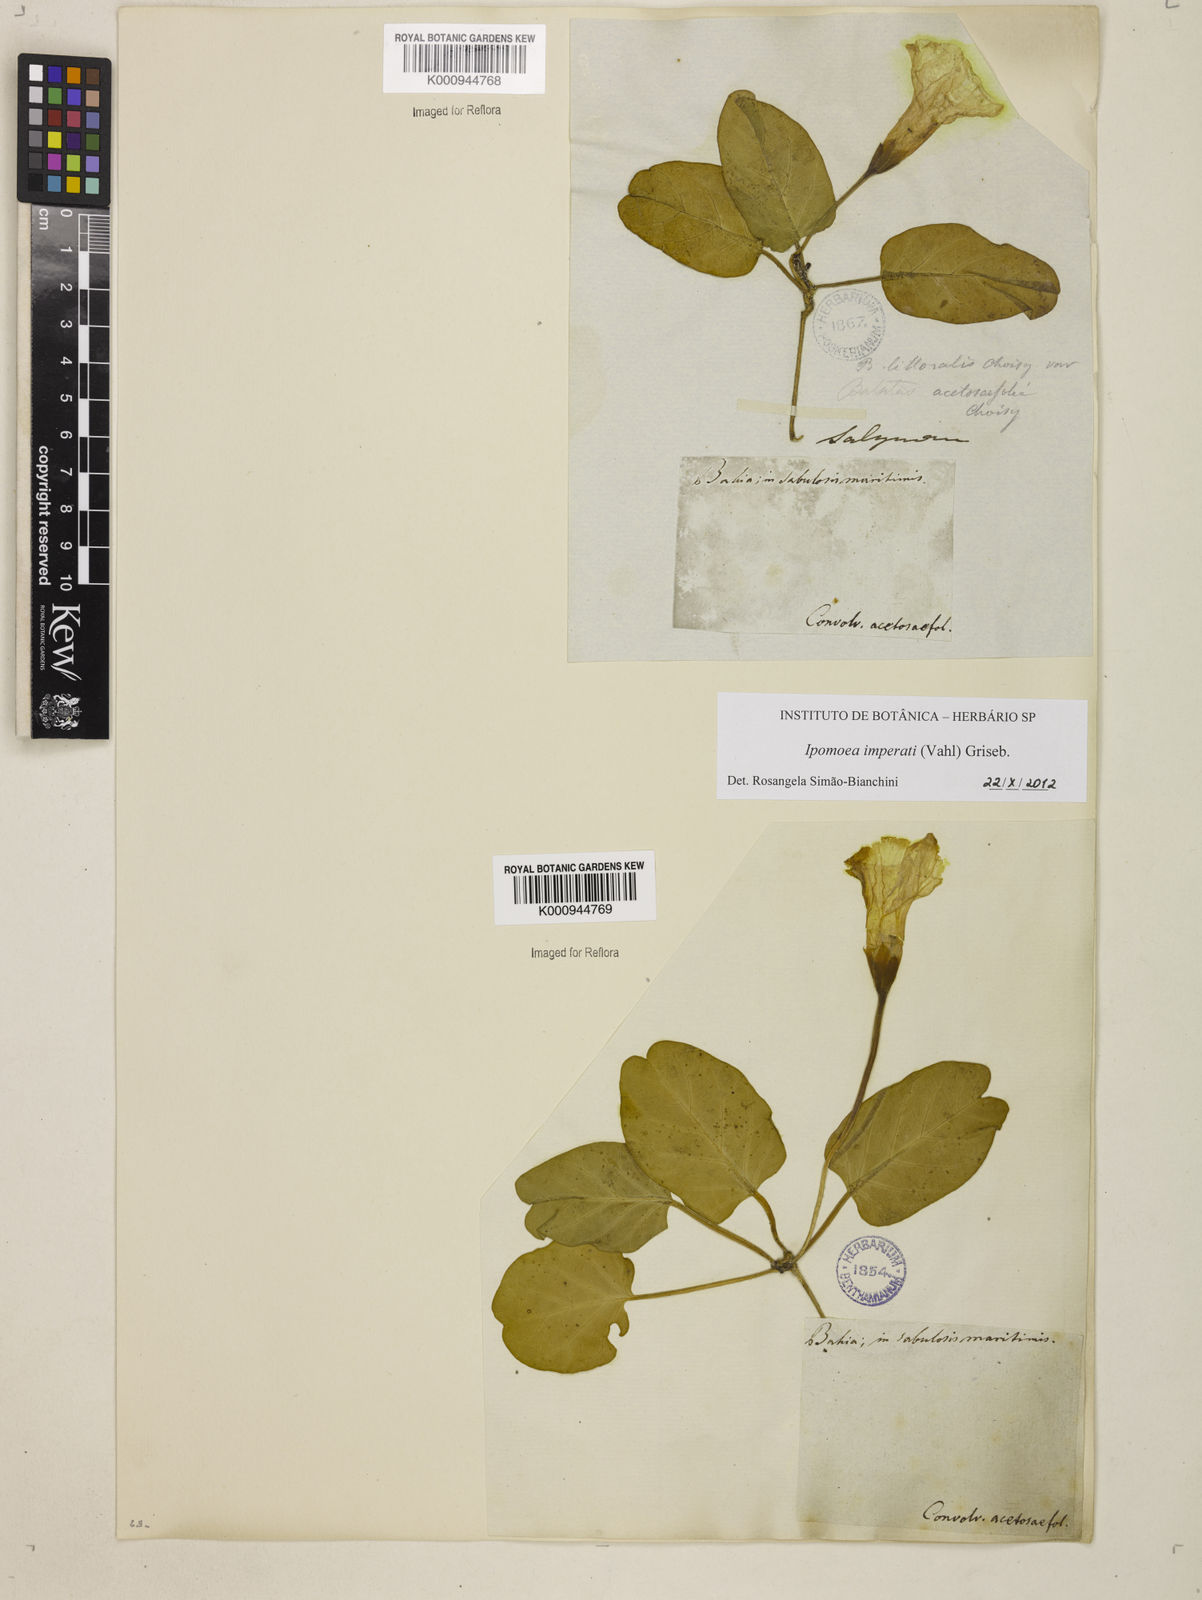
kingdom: Plantae
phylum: Tracheophyta
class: Magnoliopsida
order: Solanales
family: Convolvulaceae
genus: Ipomoea
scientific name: Ipomoea
